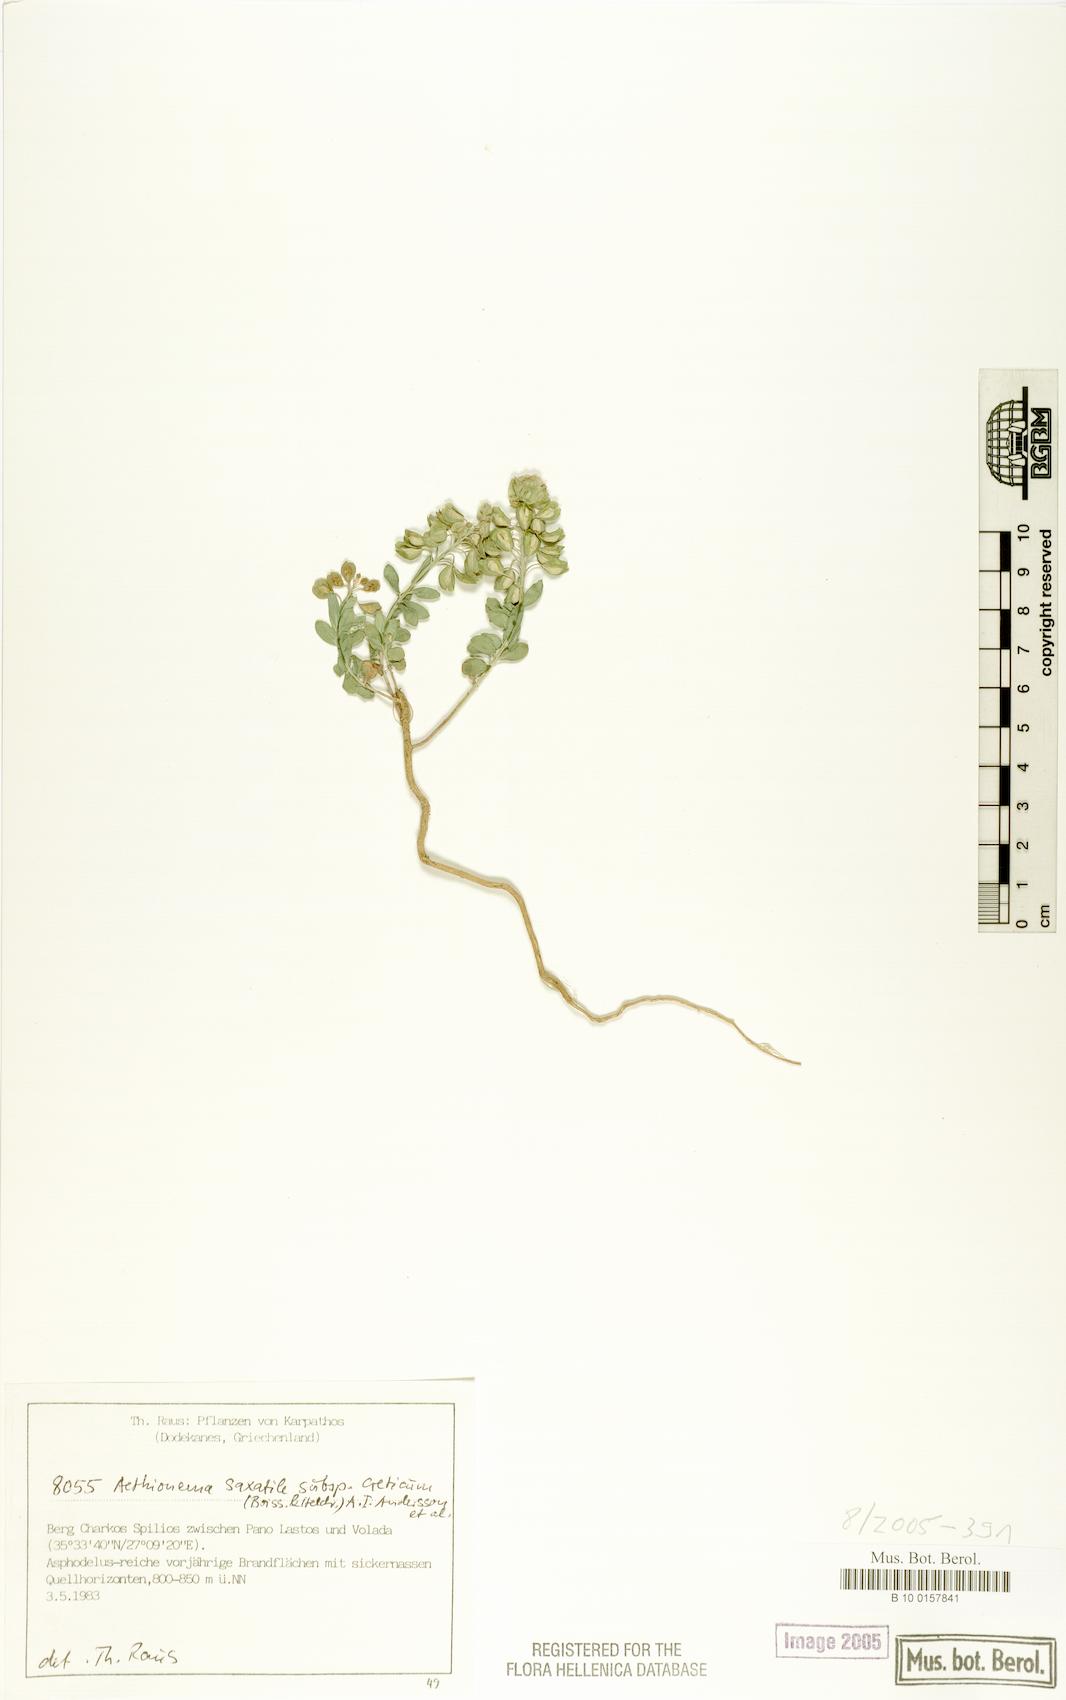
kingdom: Plantae
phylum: Tracheophyta
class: Magnoliopsida
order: Brassicales
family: Brassicaceae
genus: Aethionema
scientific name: Aethionema saxatile
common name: Burnt candytuft
